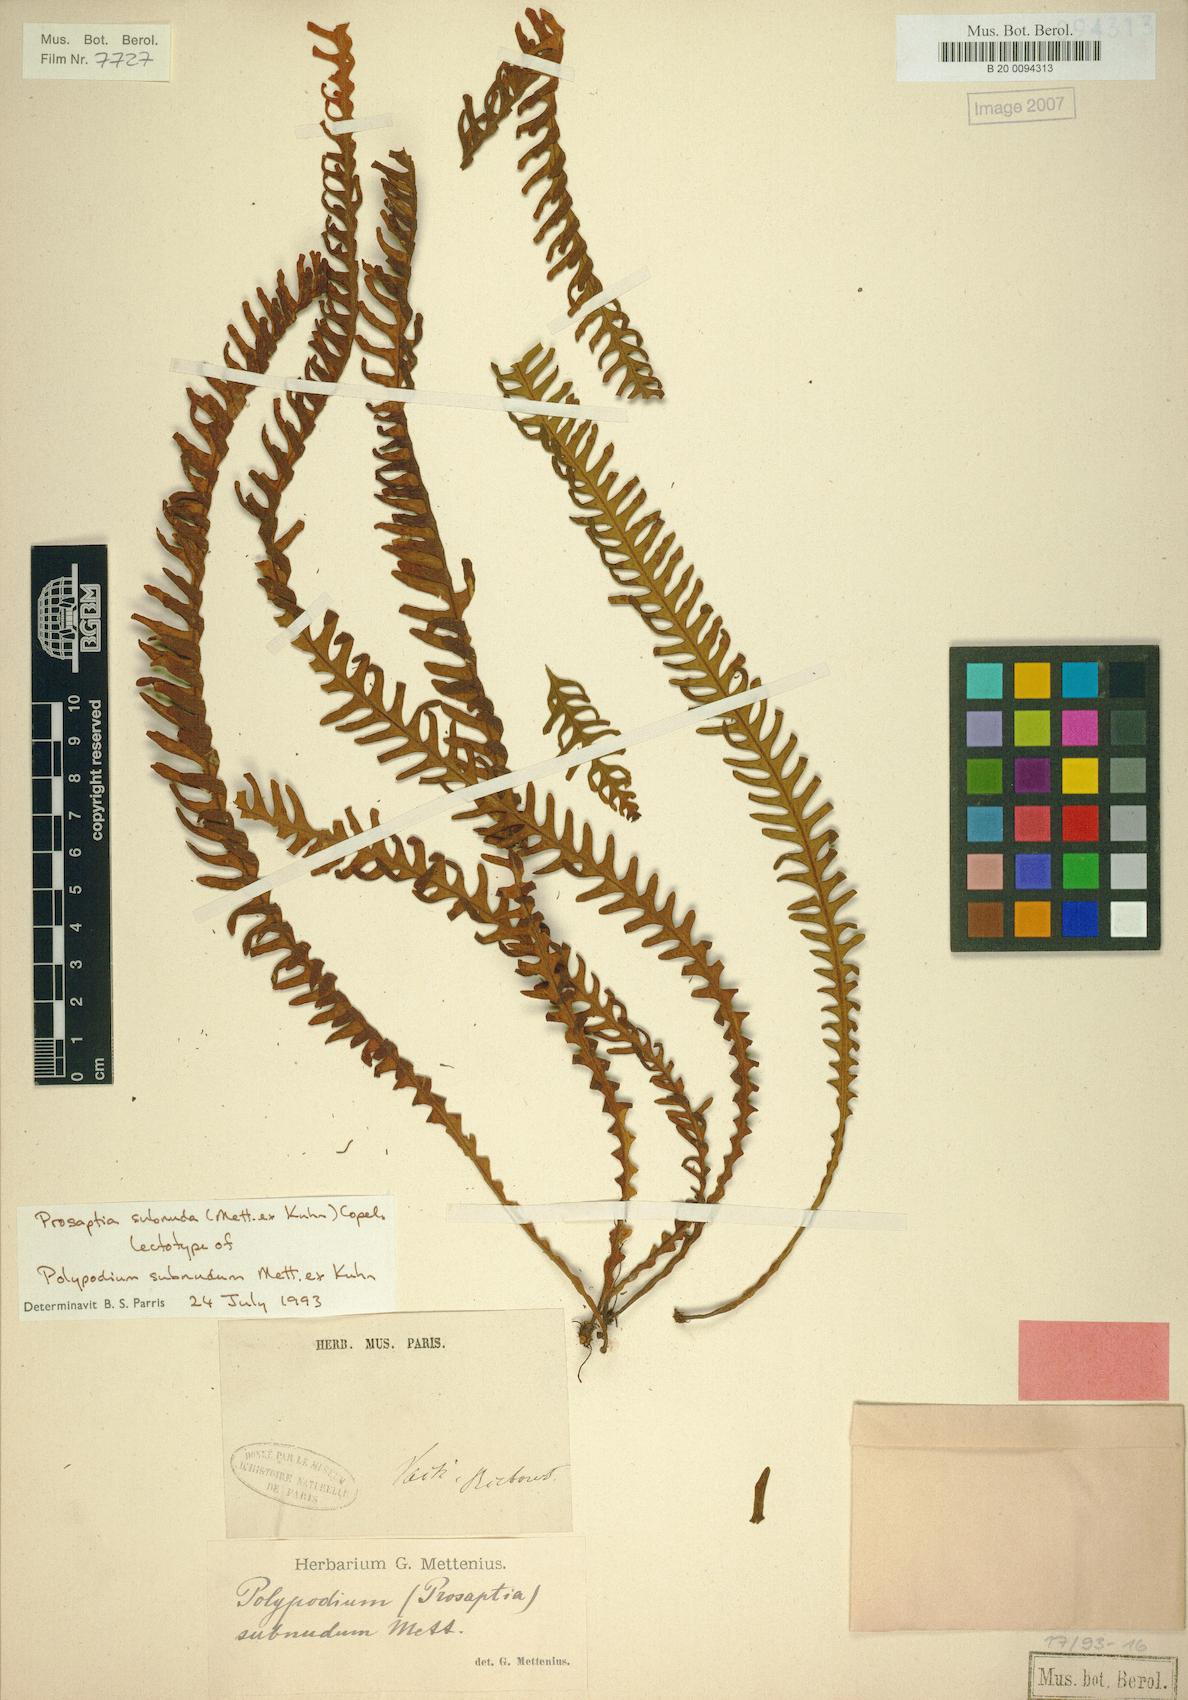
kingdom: Plantae
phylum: Tracheophyta
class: Polypodiopsida
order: Polypodiales
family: Polypodiaceae
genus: Prosaptia
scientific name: Prosaptia subnuda
